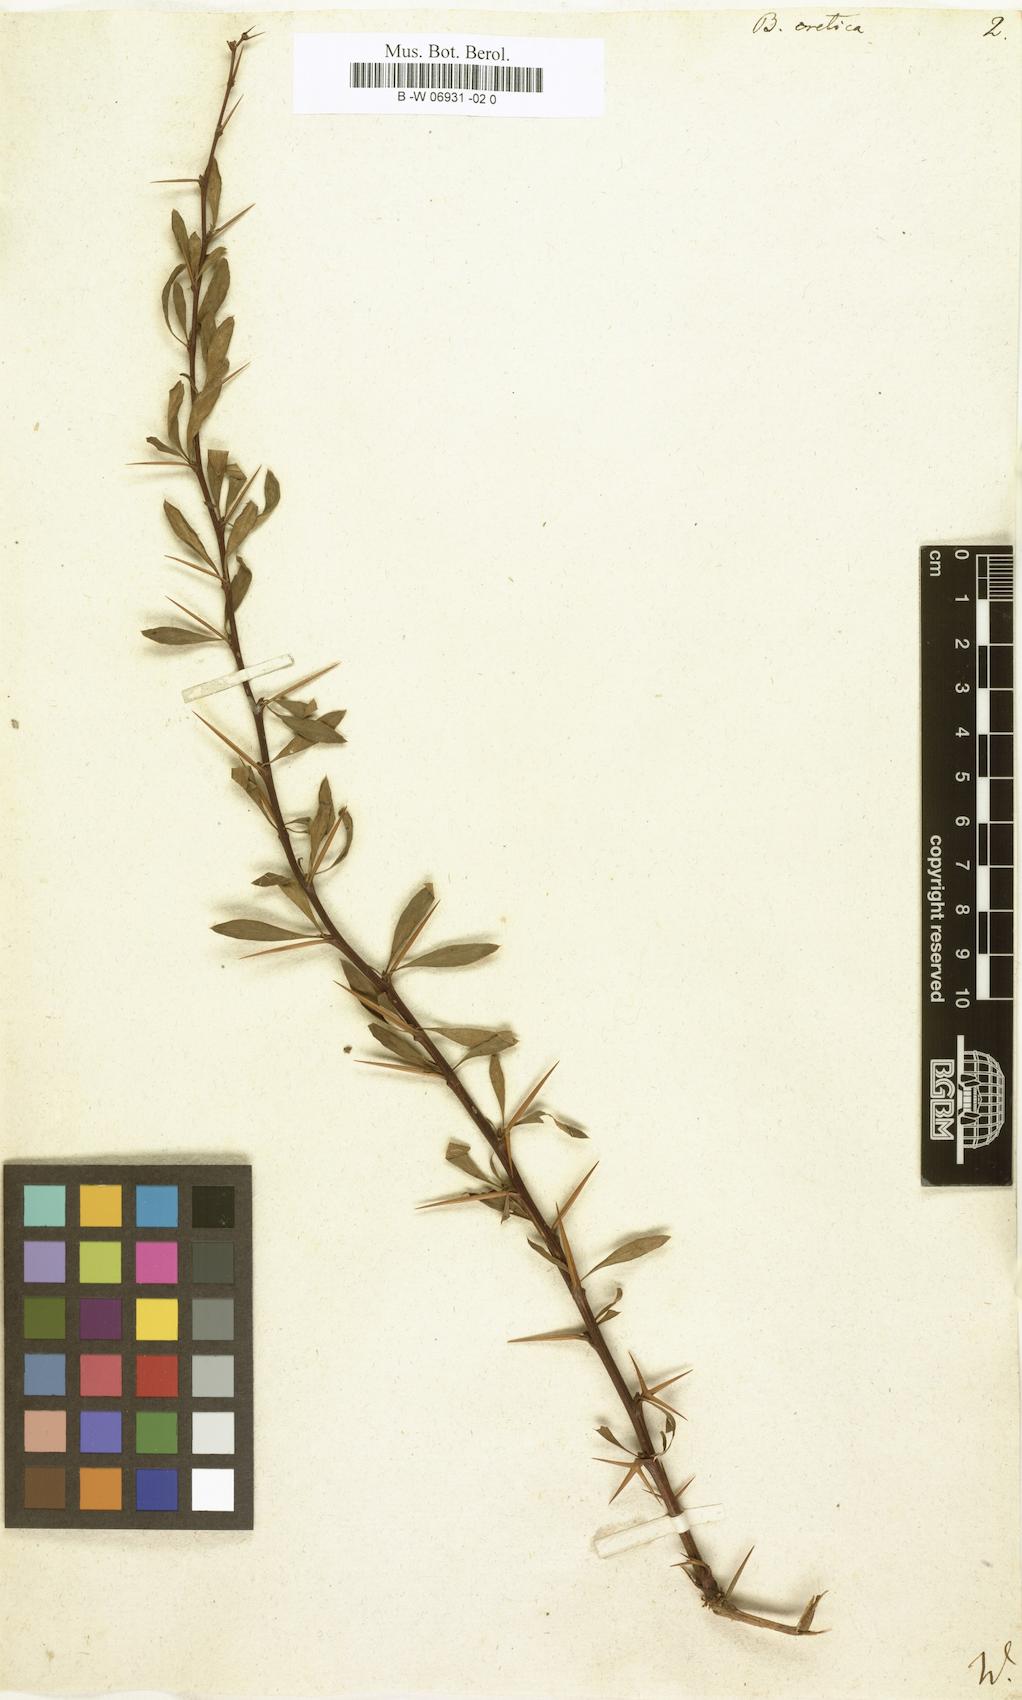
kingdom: Plantae
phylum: Tracheophyta
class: Magnoliopsida
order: Ranunculales
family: Berberidaceae
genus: Berberis
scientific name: Berberis cretica
